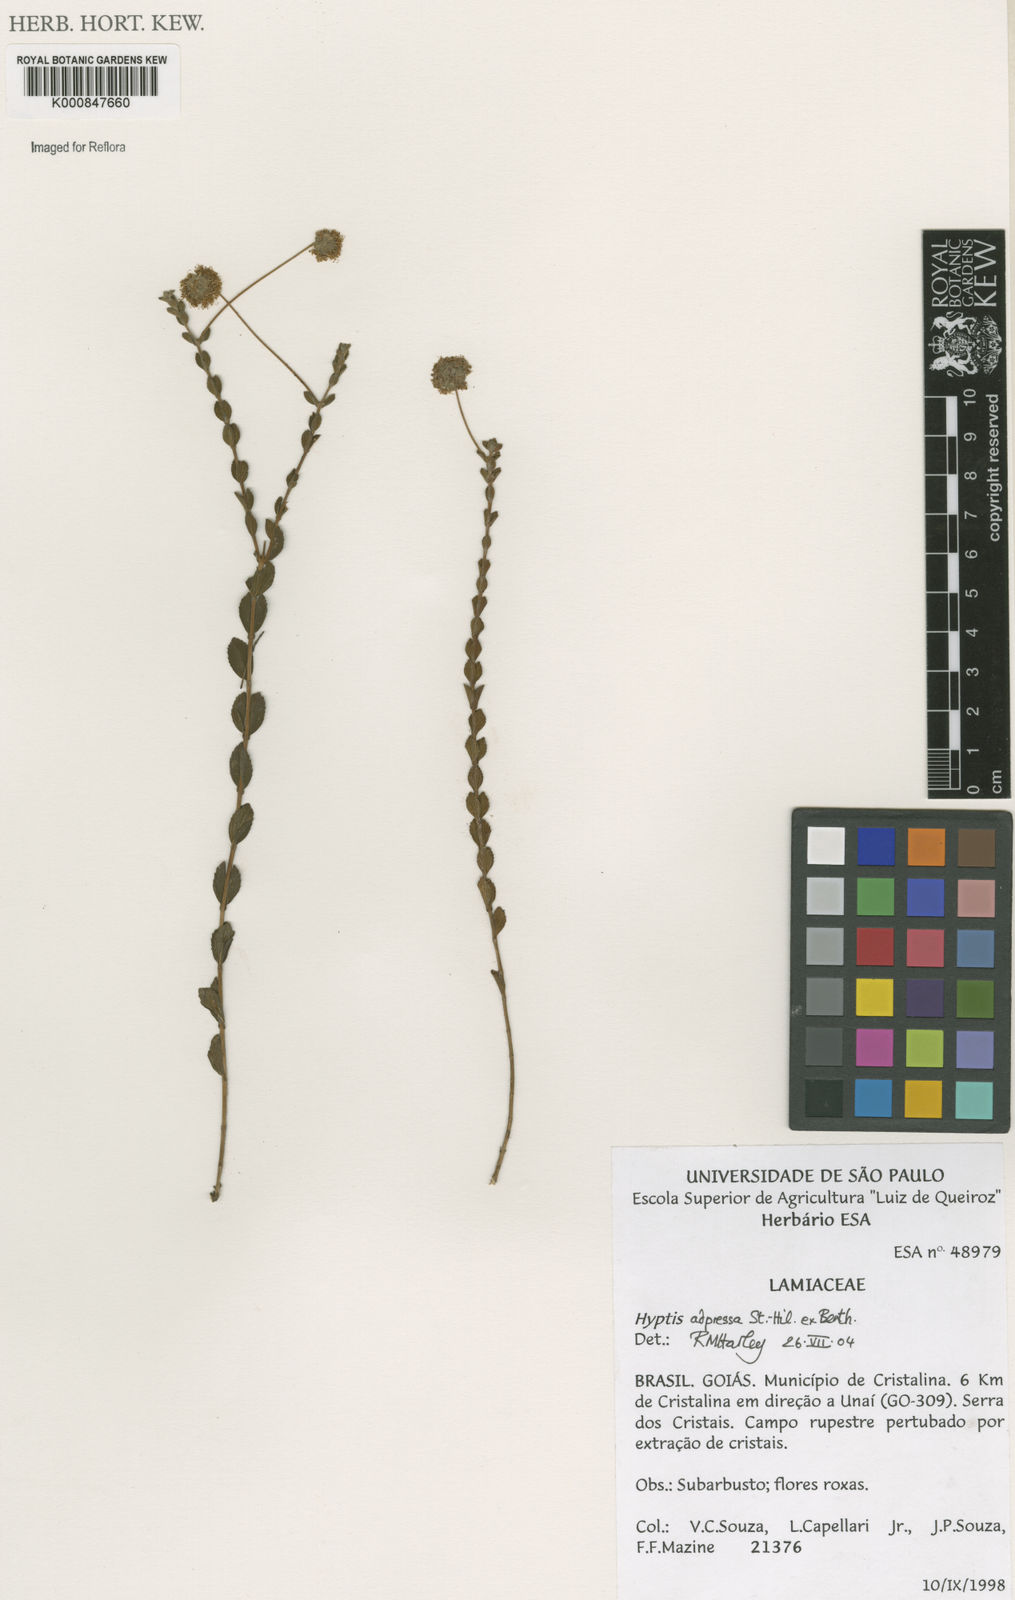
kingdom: Plantae
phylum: Tracheophyta
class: Magnoliopsida
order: Lamiales
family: Lamiaceae
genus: Cyanocephalus
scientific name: Cyanocephalus adpressus
